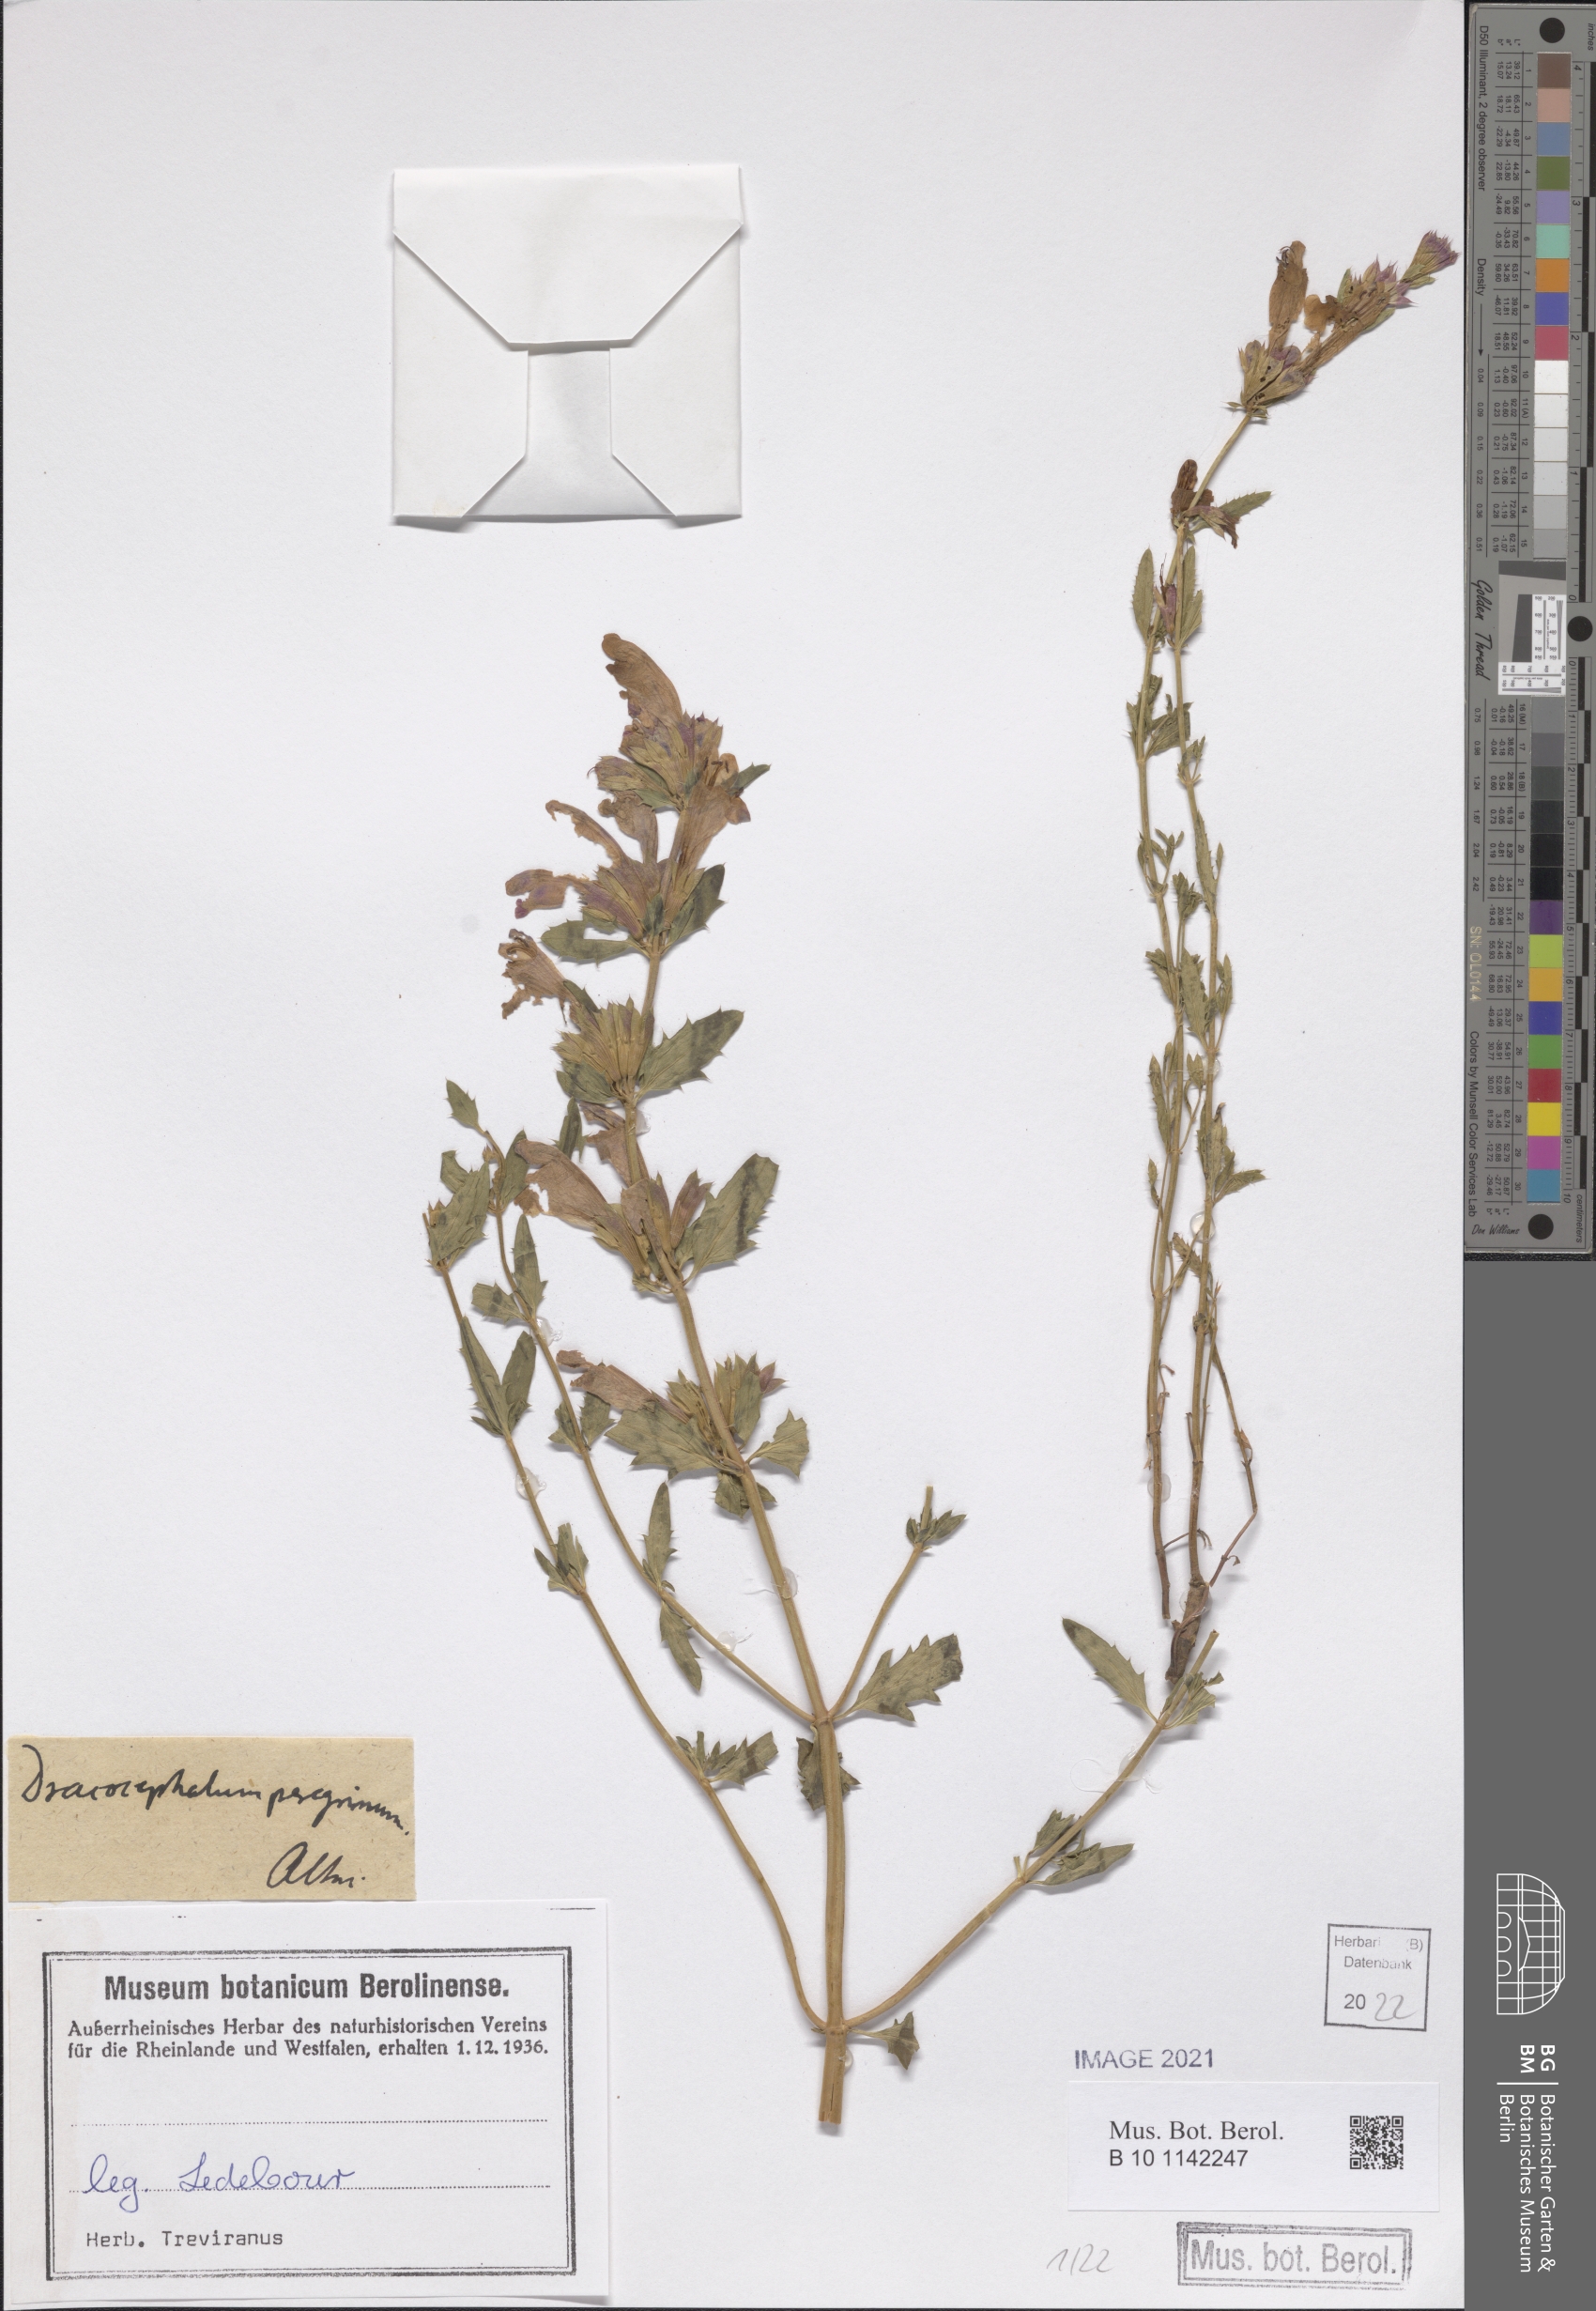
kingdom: Plantae
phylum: Tracheophyta
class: Magnoliopsida
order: Lamiales
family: Lamiaceae
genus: Dracocephalum
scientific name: Dracocephalum peregrinum
